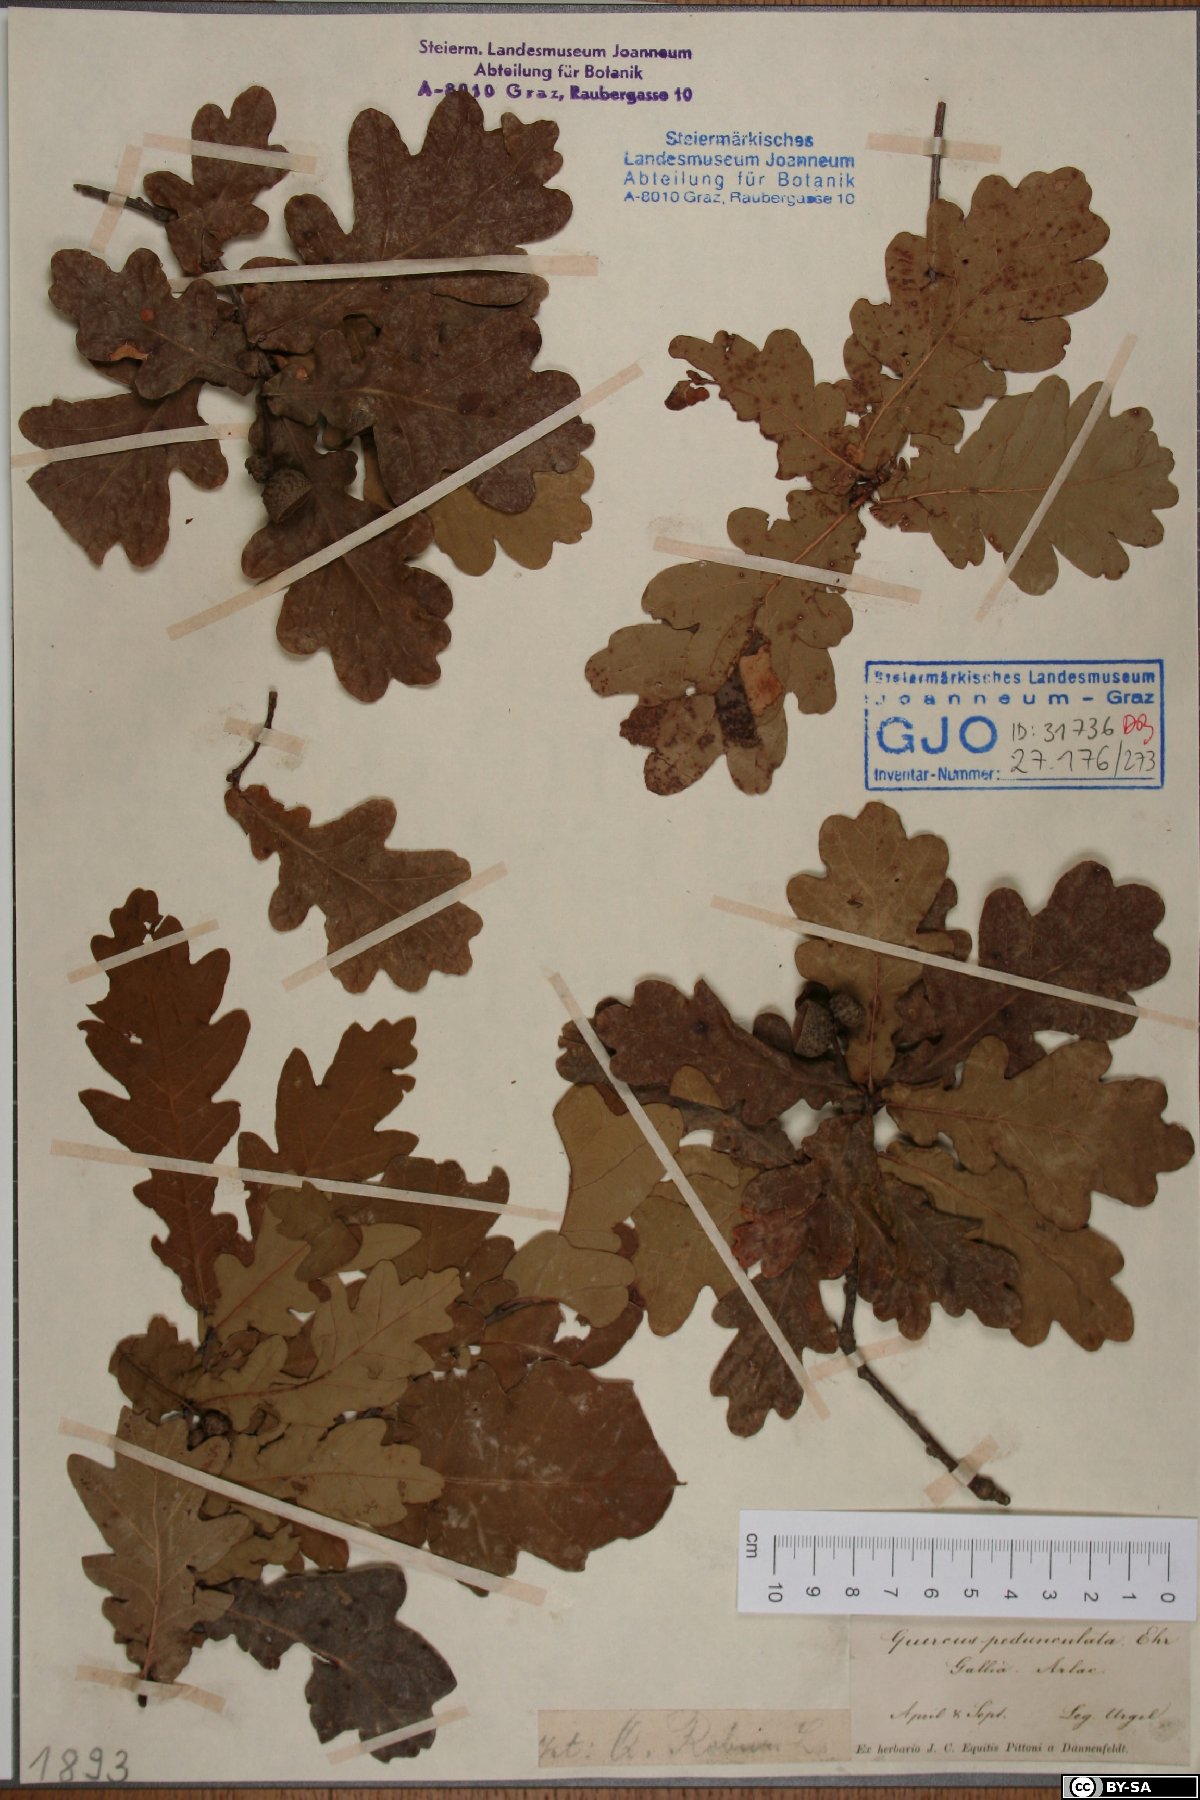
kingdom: Plantae
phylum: Tracheophyta
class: Magnoliopsida
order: Fagales
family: Fagaceae
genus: Quercus
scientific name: Quercus robur
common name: Pedunculate oak
